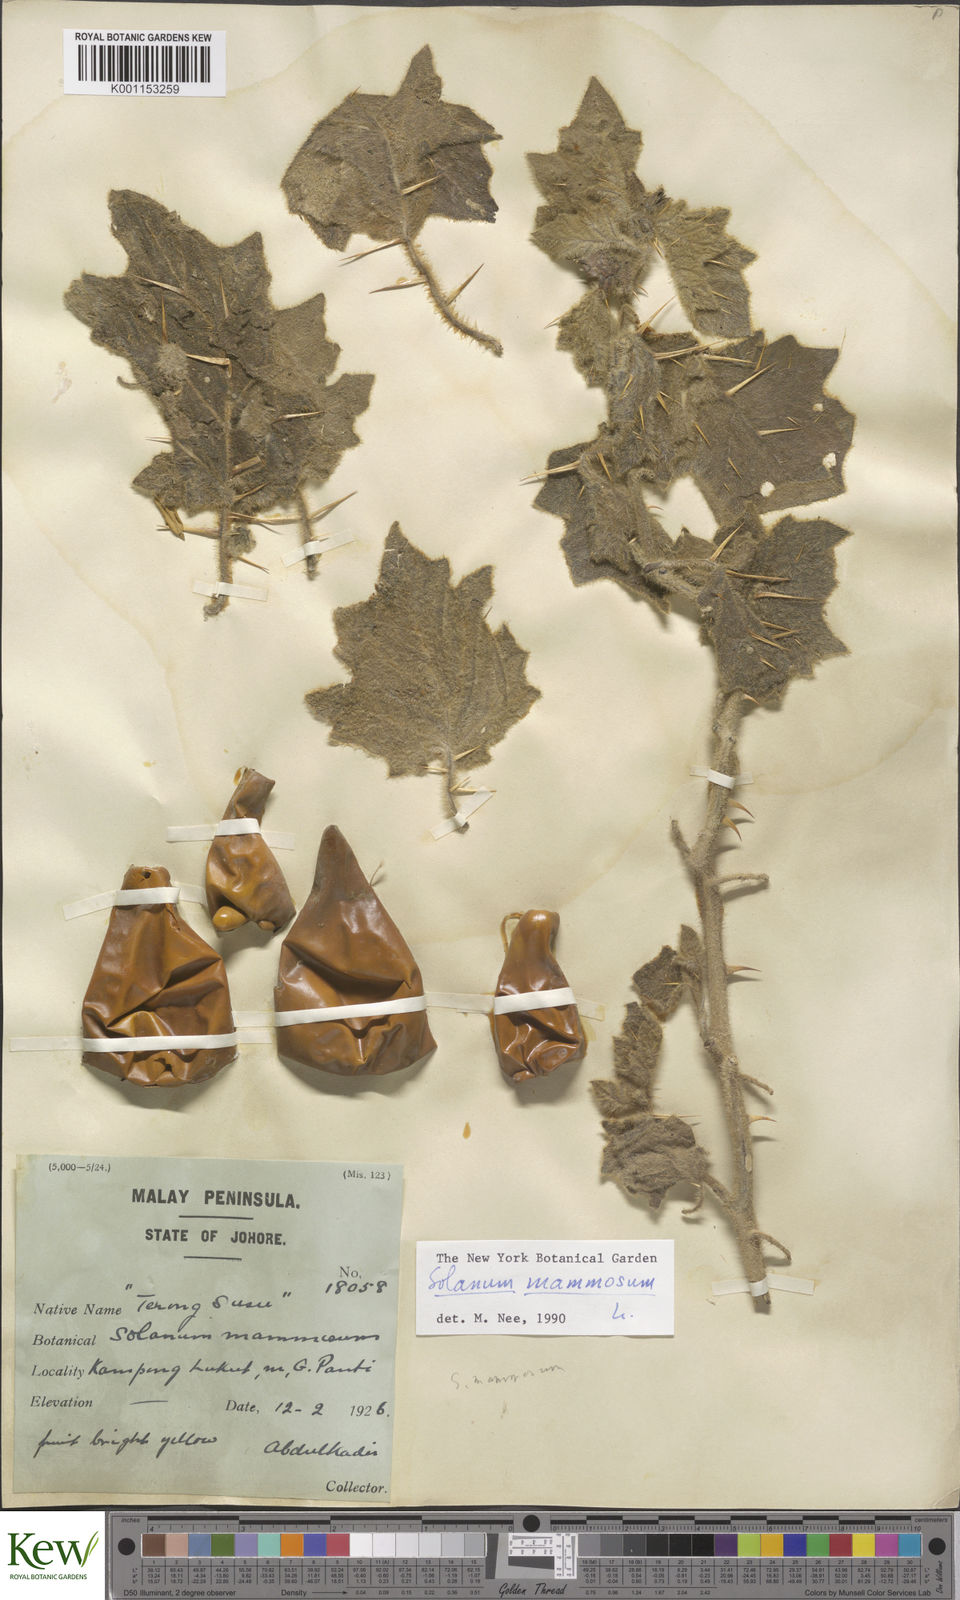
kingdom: Plantae
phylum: Tracheophyta
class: Magnoliopsida
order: Solanales
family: Solanaceae
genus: Solanum
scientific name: Solanum mammosum
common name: Nipple fruit
